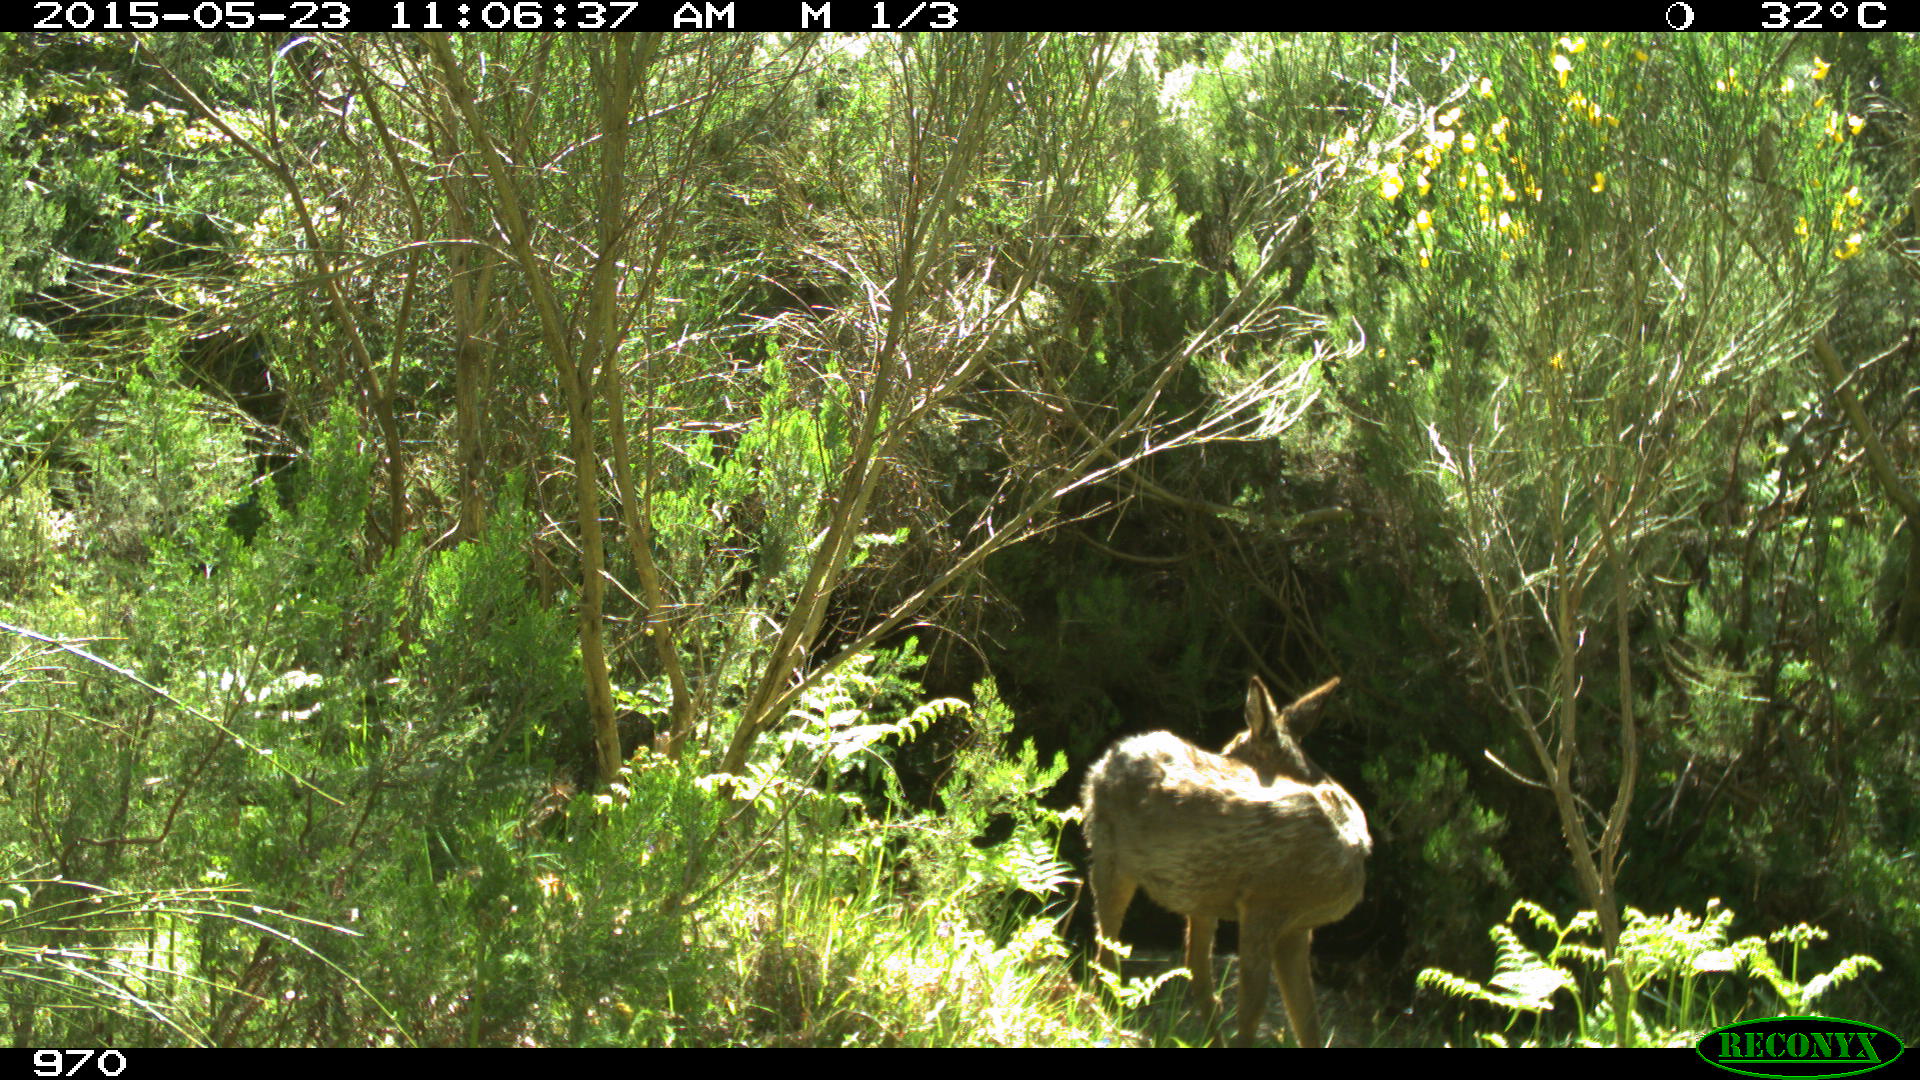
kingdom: Animalia
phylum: Chordata
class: Mammalia
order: Artiodactyla
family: Cervidae
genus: Capreolus
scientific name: Capreolus capreolus
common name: Western roe deer
